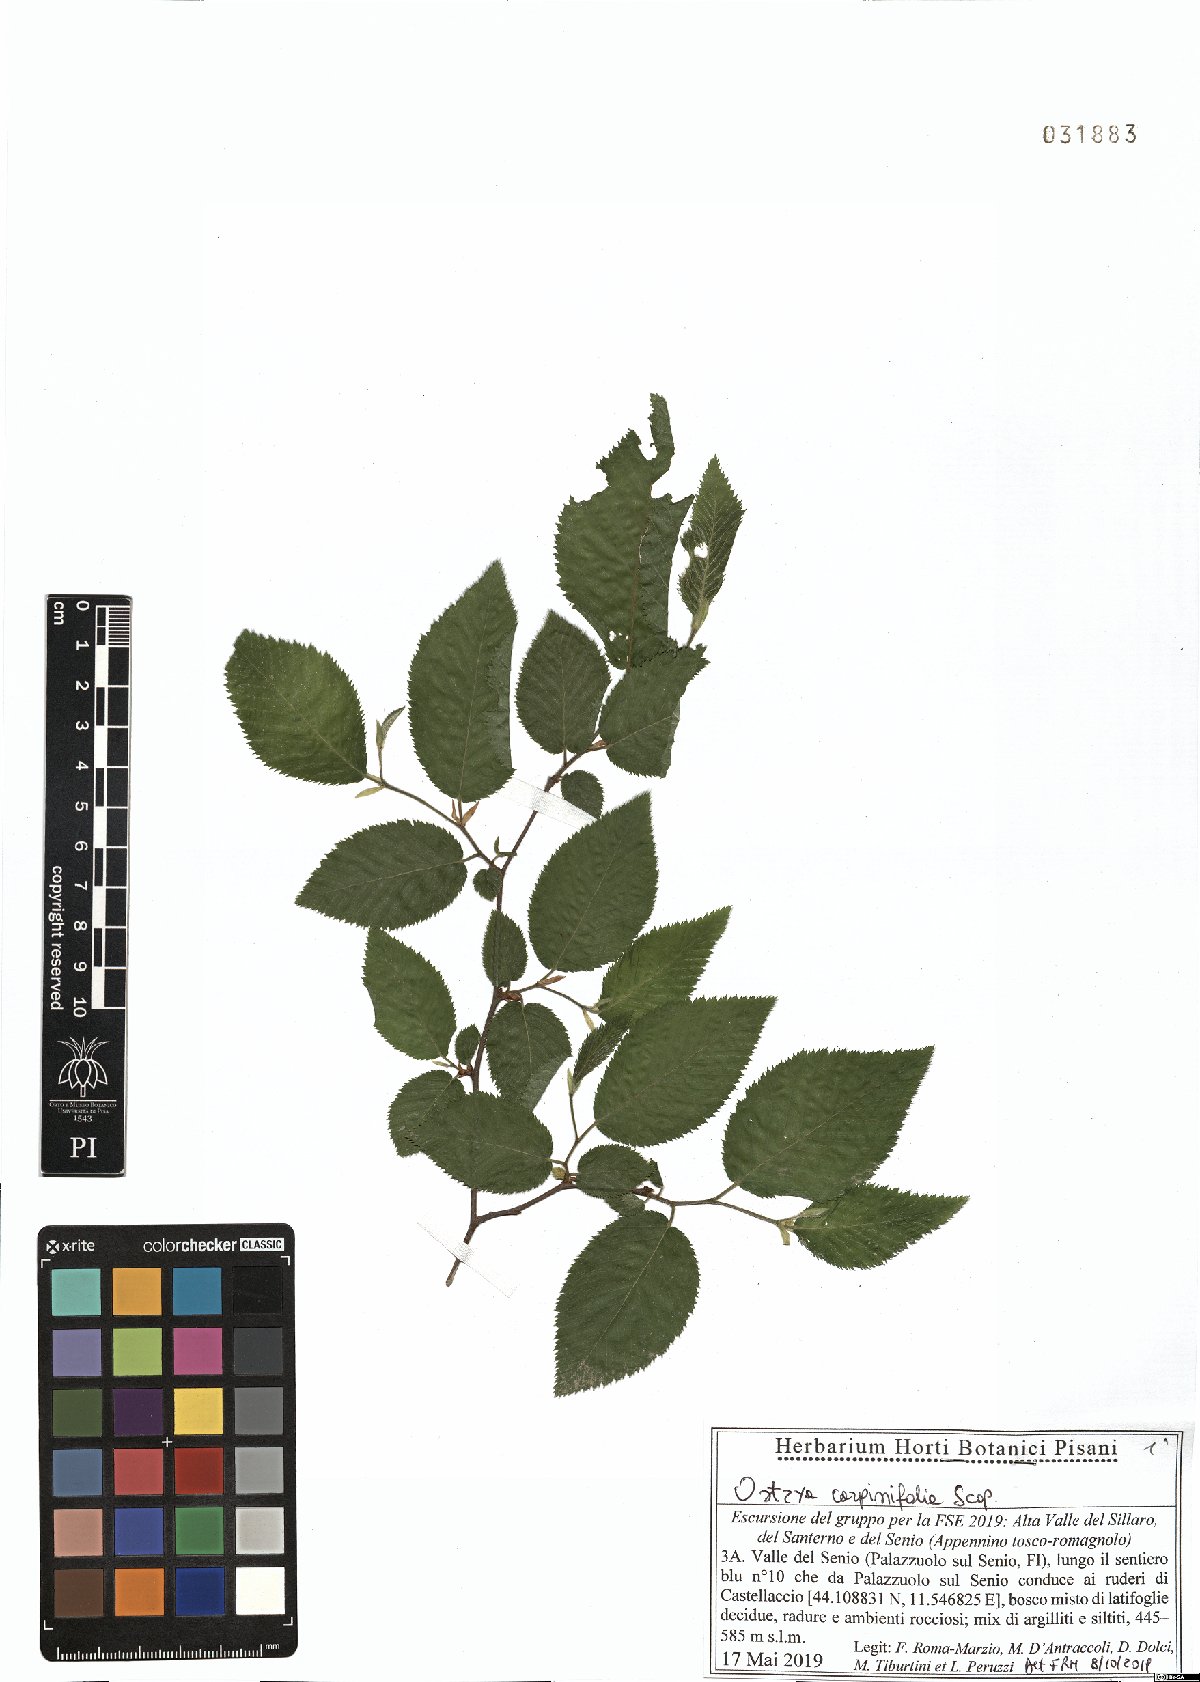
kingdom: Plantae
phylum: Tracheophyta
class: Magnoliopsida
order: Fagales
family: Betulaceae
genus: Ostrya
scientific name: Ostrya carpinifolia
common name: European hop-hornbeam
